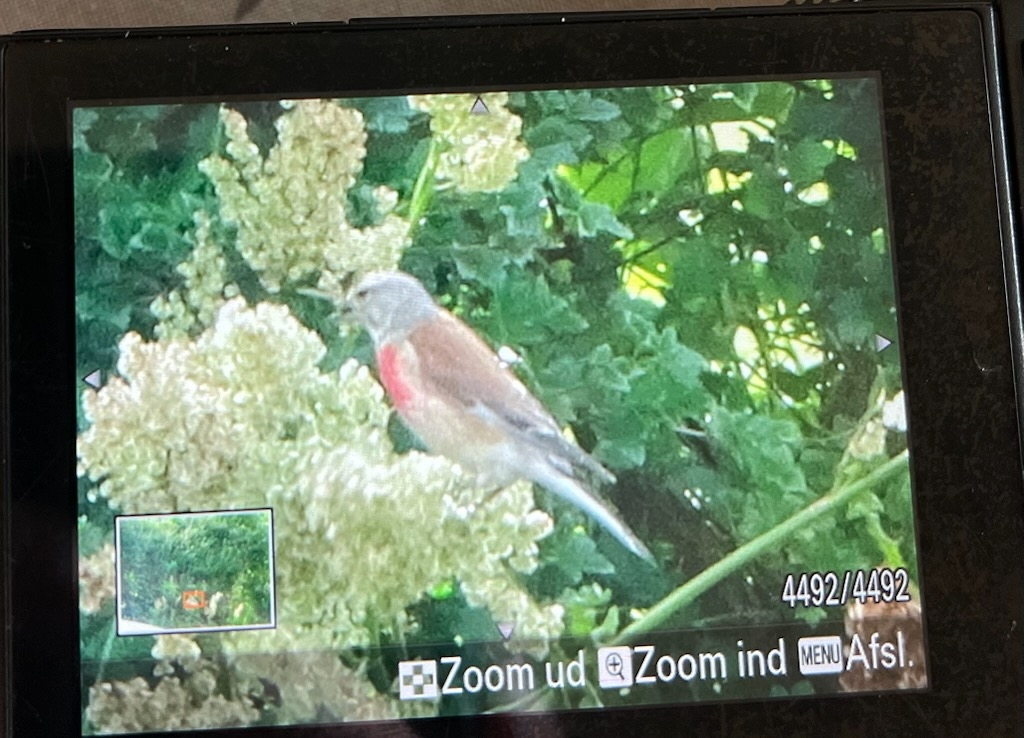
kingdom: Animalia
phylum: Chordata
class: Aves
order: Passeriformes
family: Fringillidae
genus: Linaria
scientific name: Linaria cannabina
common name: Tornirisk
